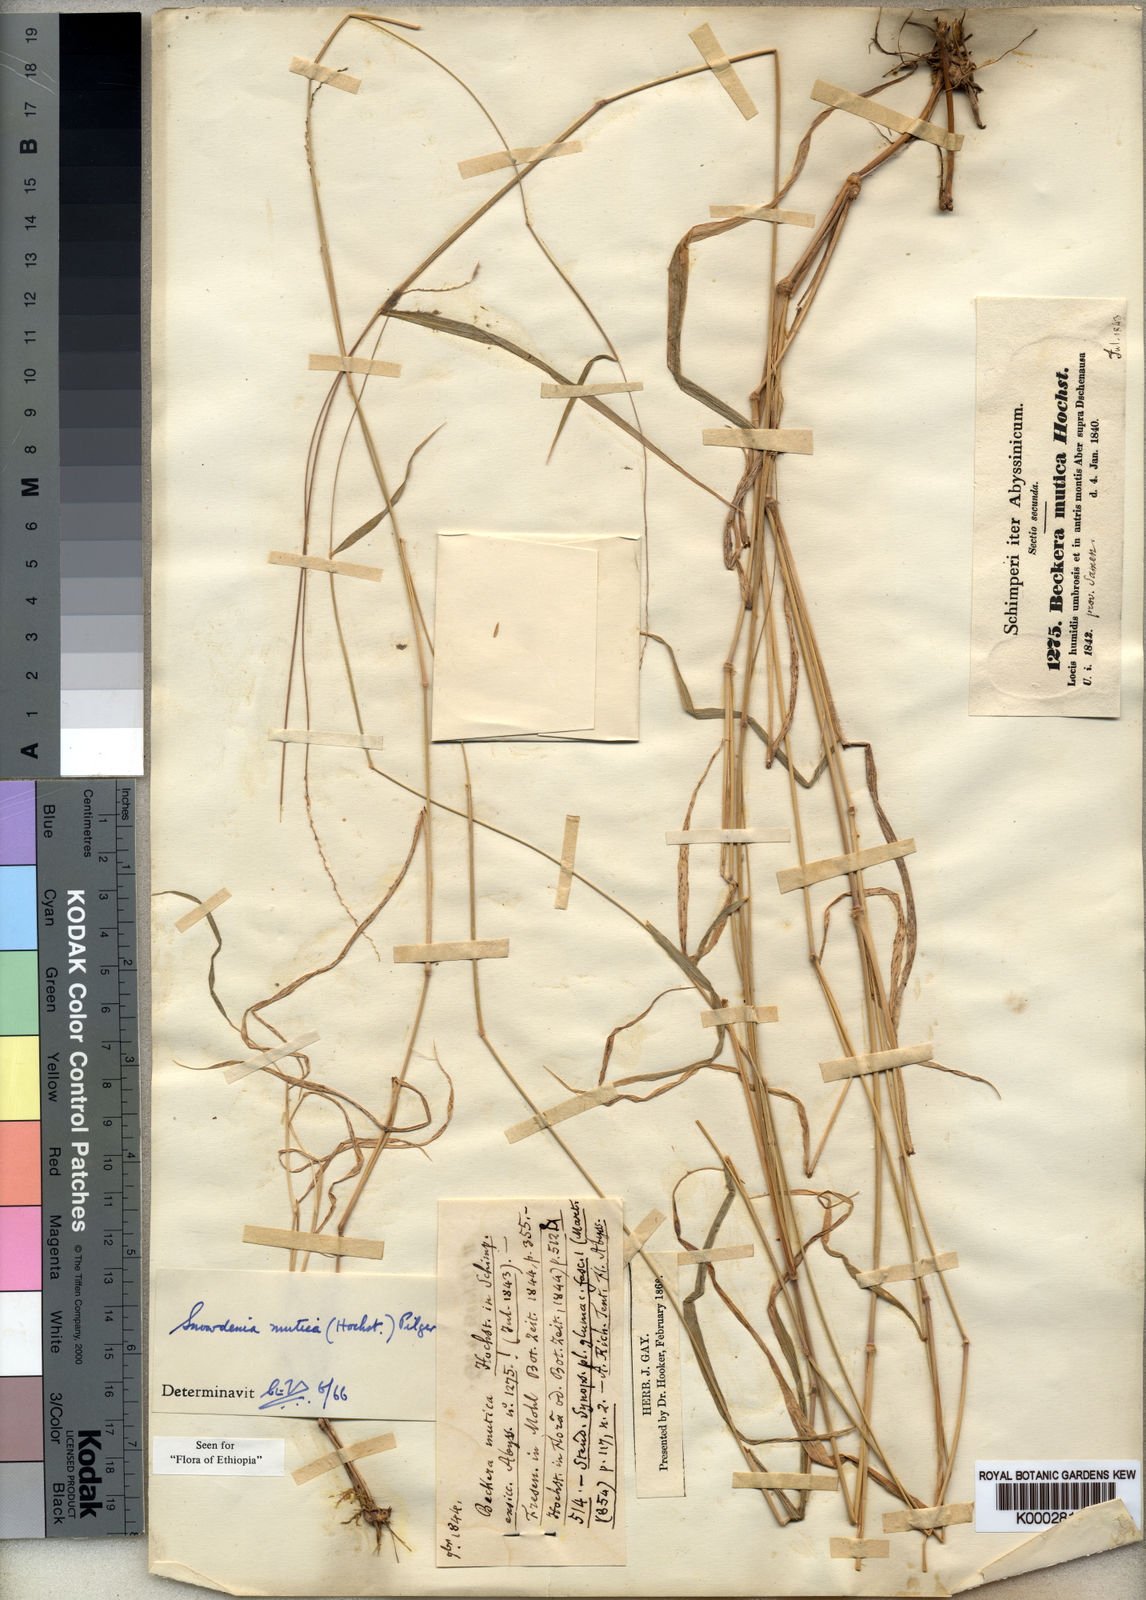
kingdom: Plantae
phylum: Tracheophyta
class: Liliopsida
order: Poales
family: Poaceae
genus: Snowdenia
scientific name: Snowdenia mutica
